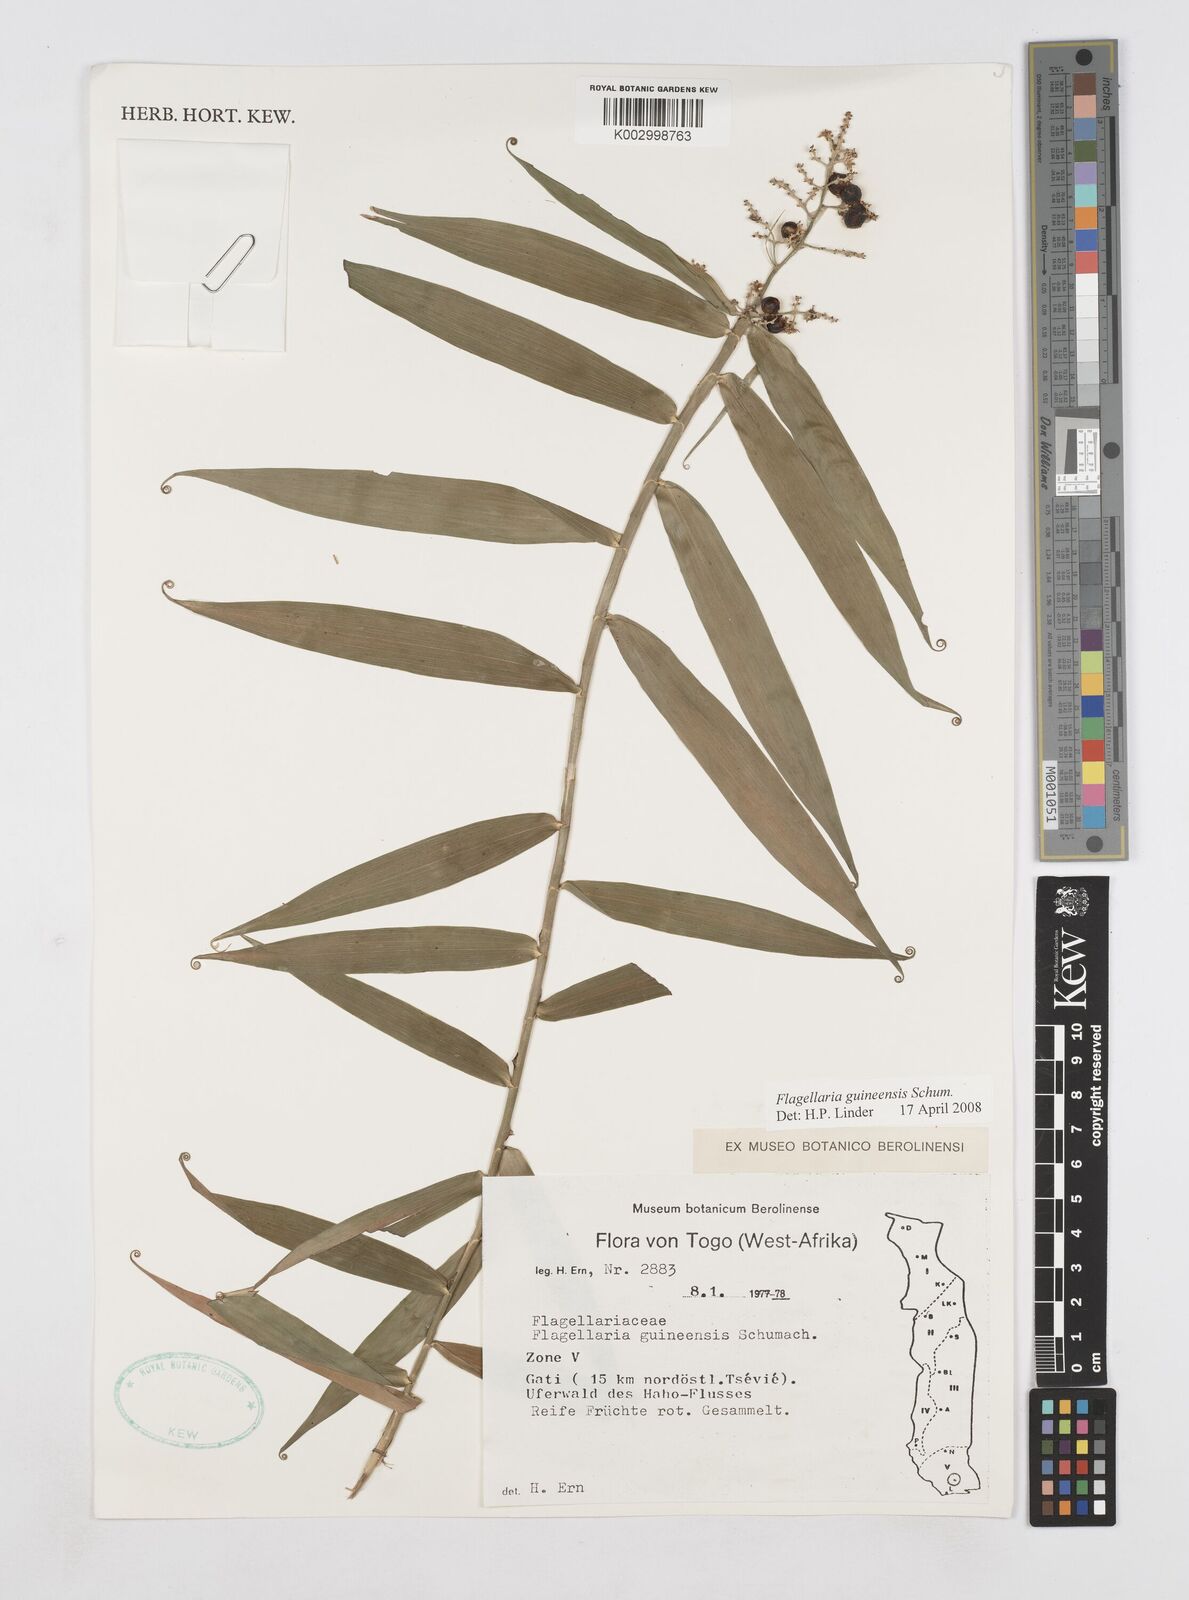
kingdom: Plantae
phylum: Tracheophyta
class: Liliopsida
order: Poales
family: Flagellariaceae
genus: Flagellaria
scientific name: Flagellaria guineensis
